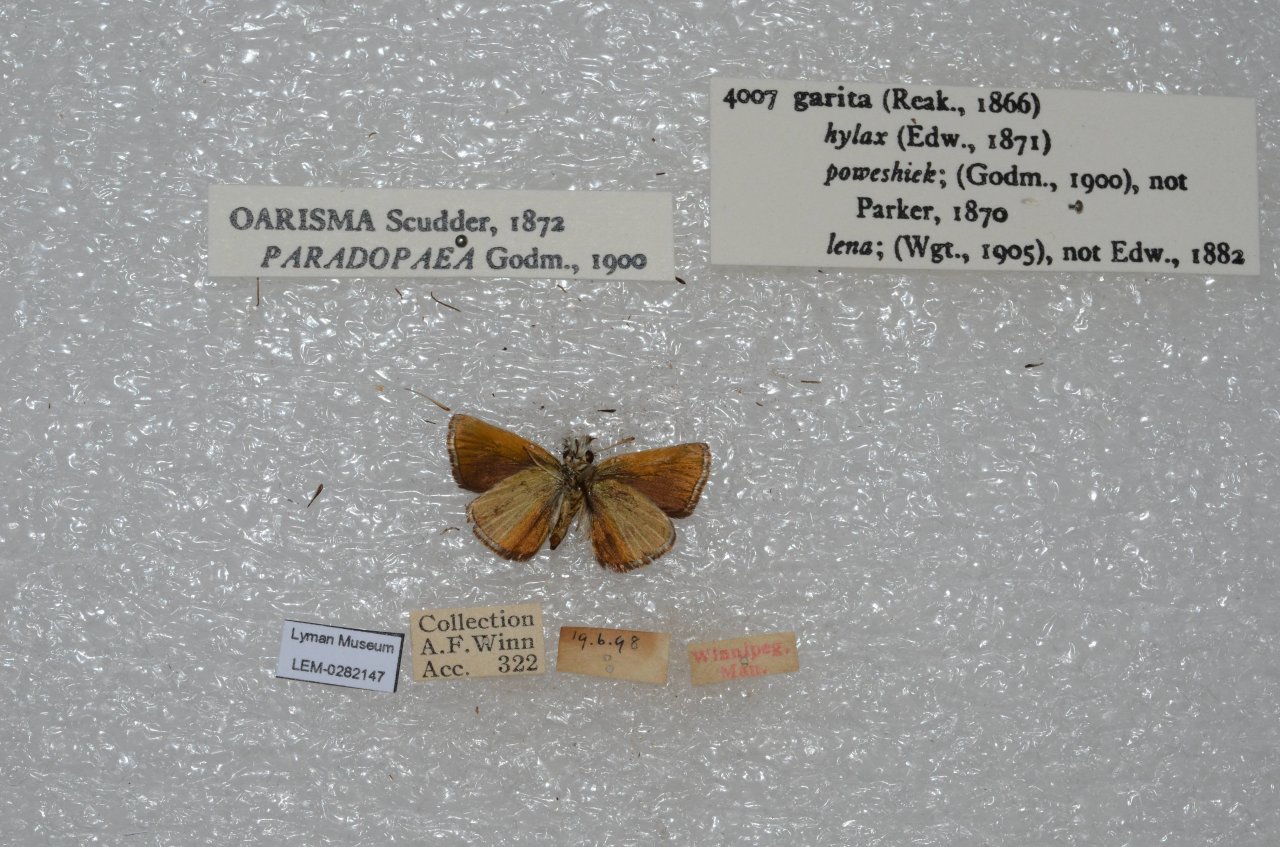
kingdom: Animalia
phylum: Arthropoda
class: Insecta
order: Lepidoptera
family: Hesperiidae
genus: Oarisma
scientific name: Oarisma garita
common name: Garita Skipperling
